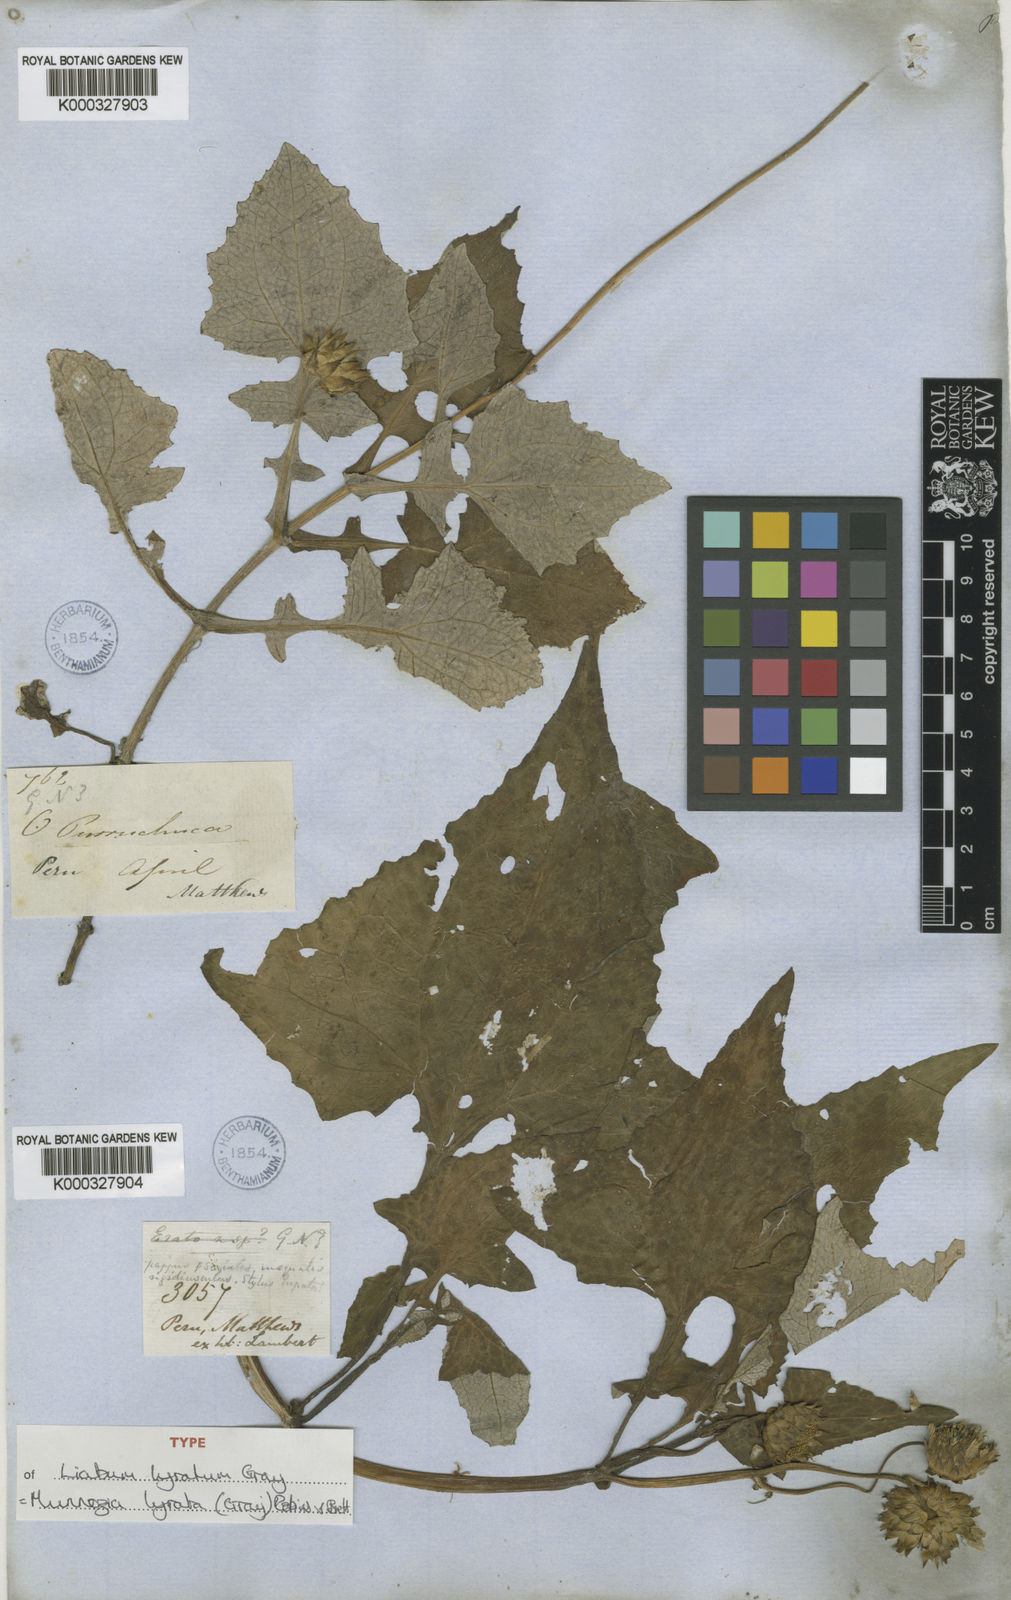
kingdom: Plantae
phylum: Tracheophyta
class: Magnoliopsida
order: Asterales
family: Asteraceae
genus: Munnozia
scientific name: Munnozia lyrata
